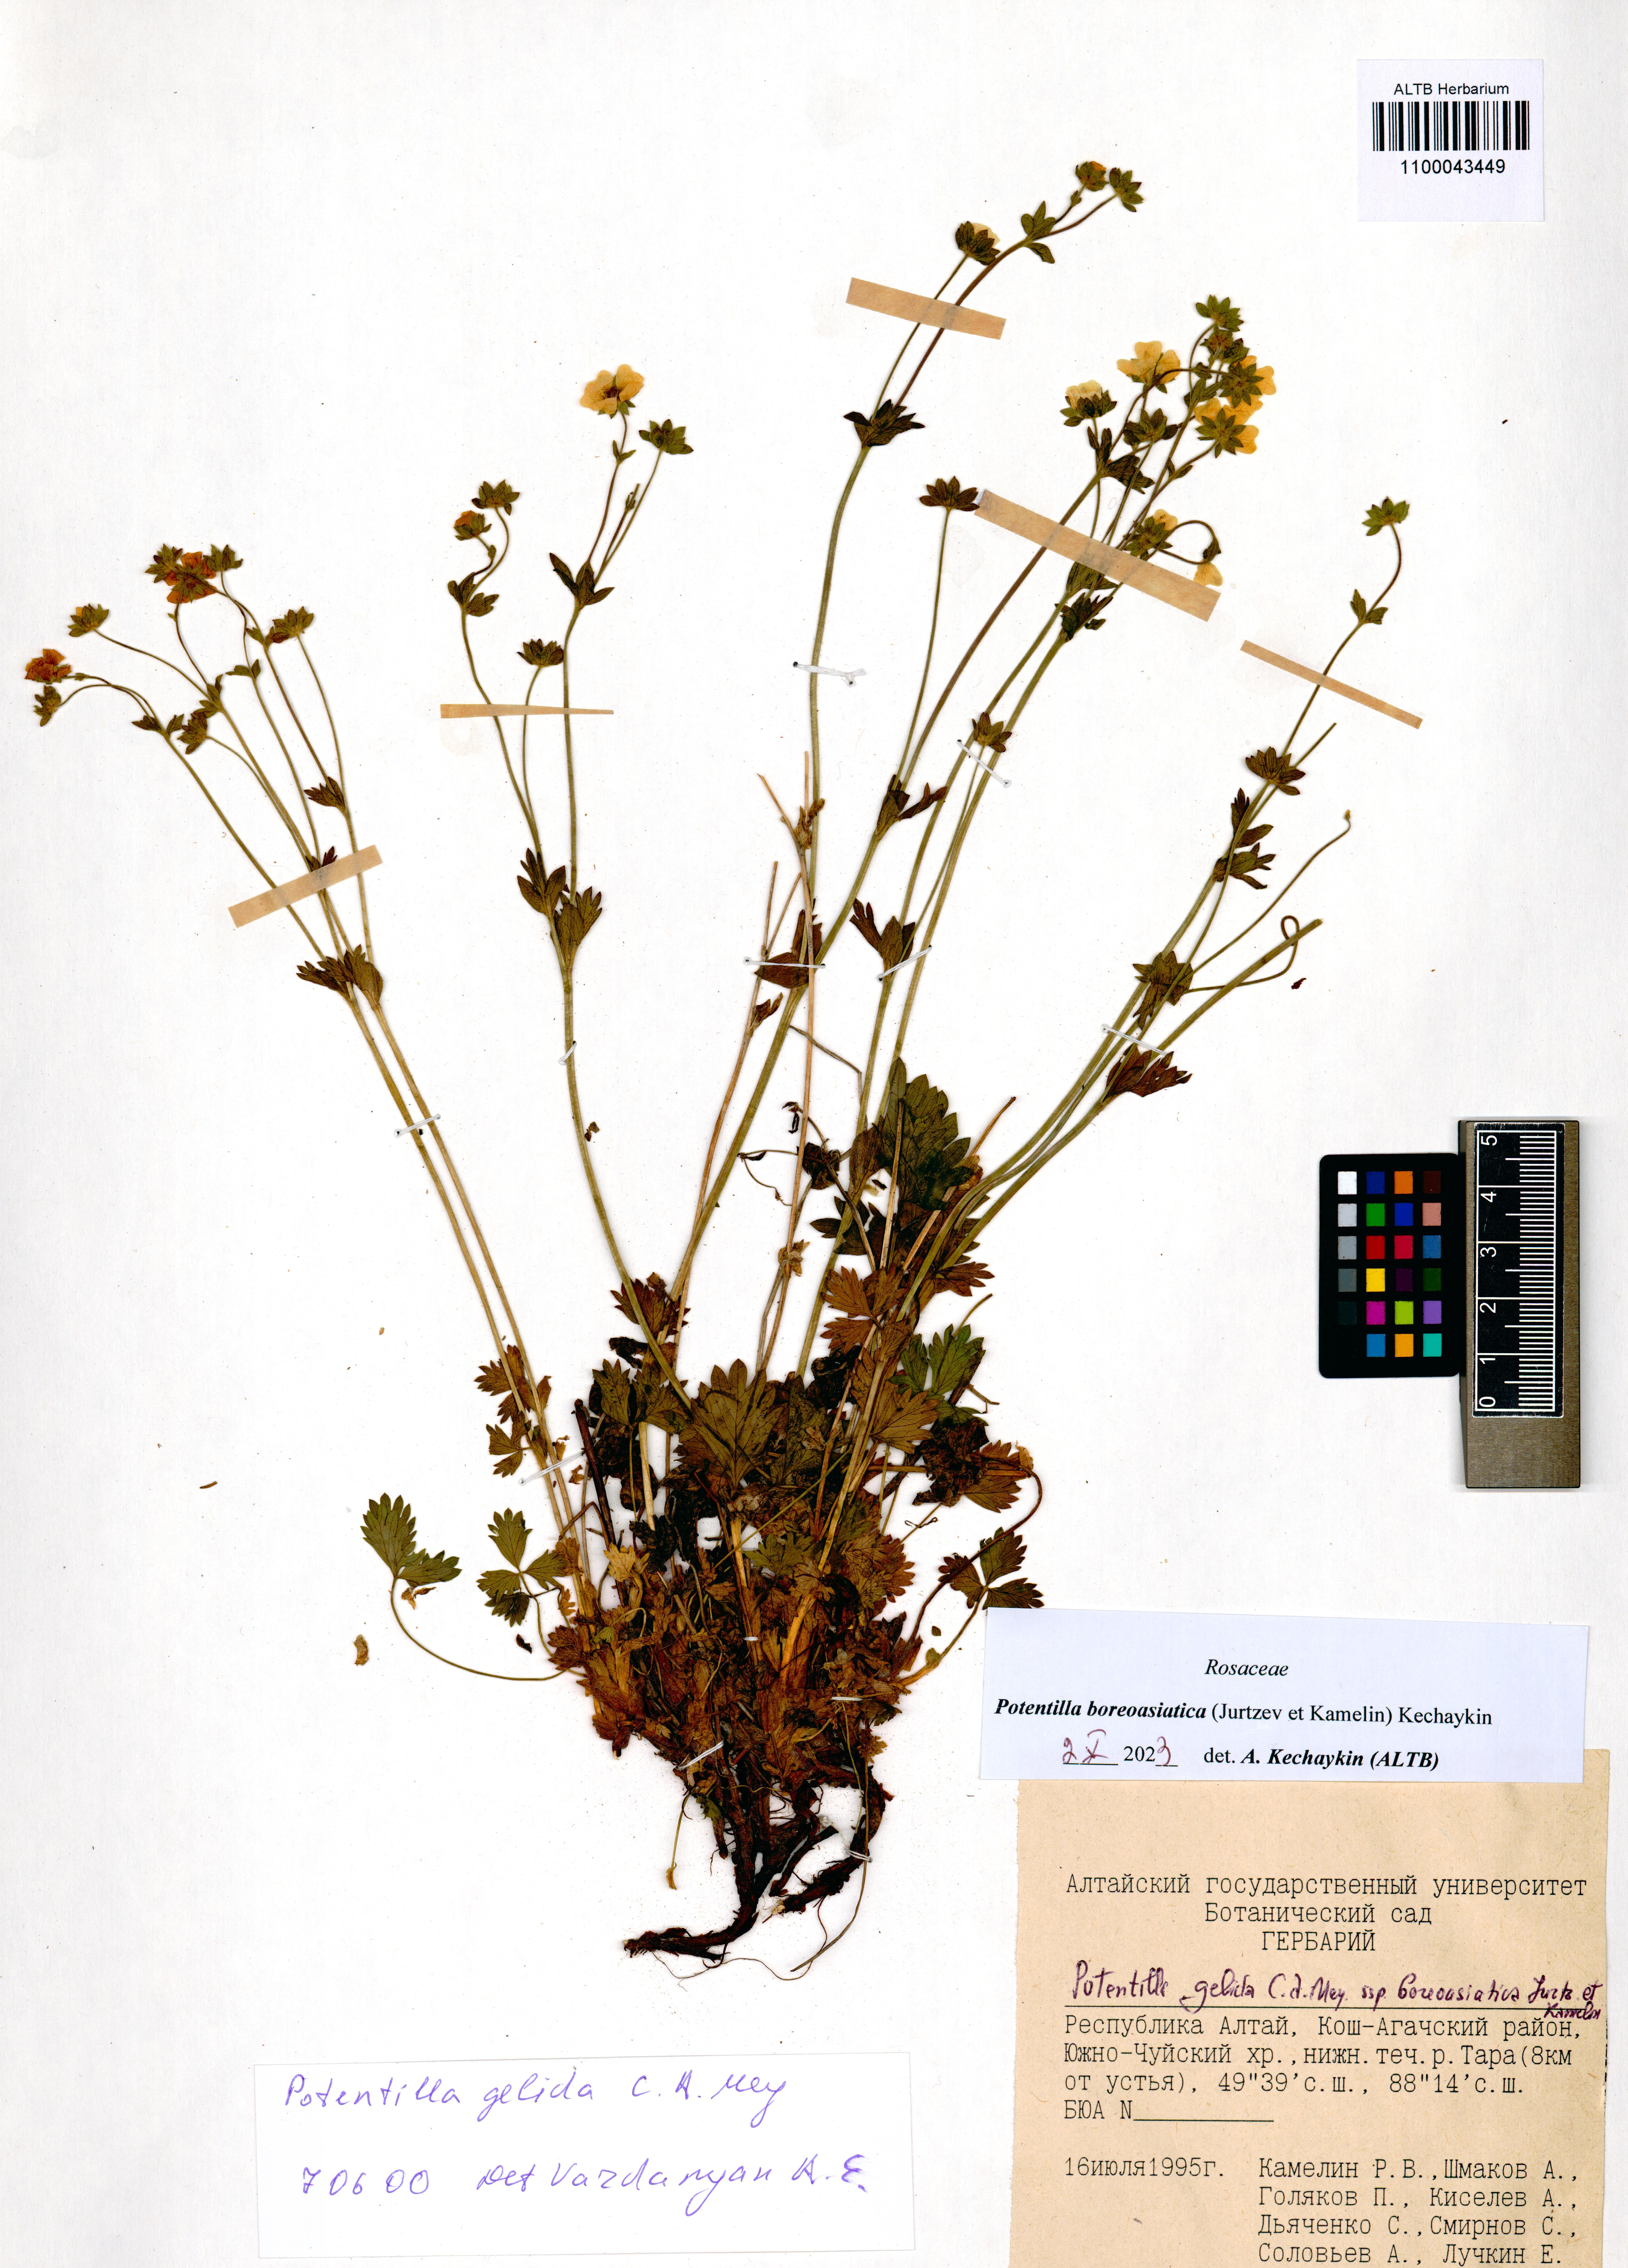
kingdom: Plantae
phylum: Tracheophyta
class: Magnoliopsida
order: Rosales
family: Rosaceae
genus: Potentilla
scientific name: Potentilla
